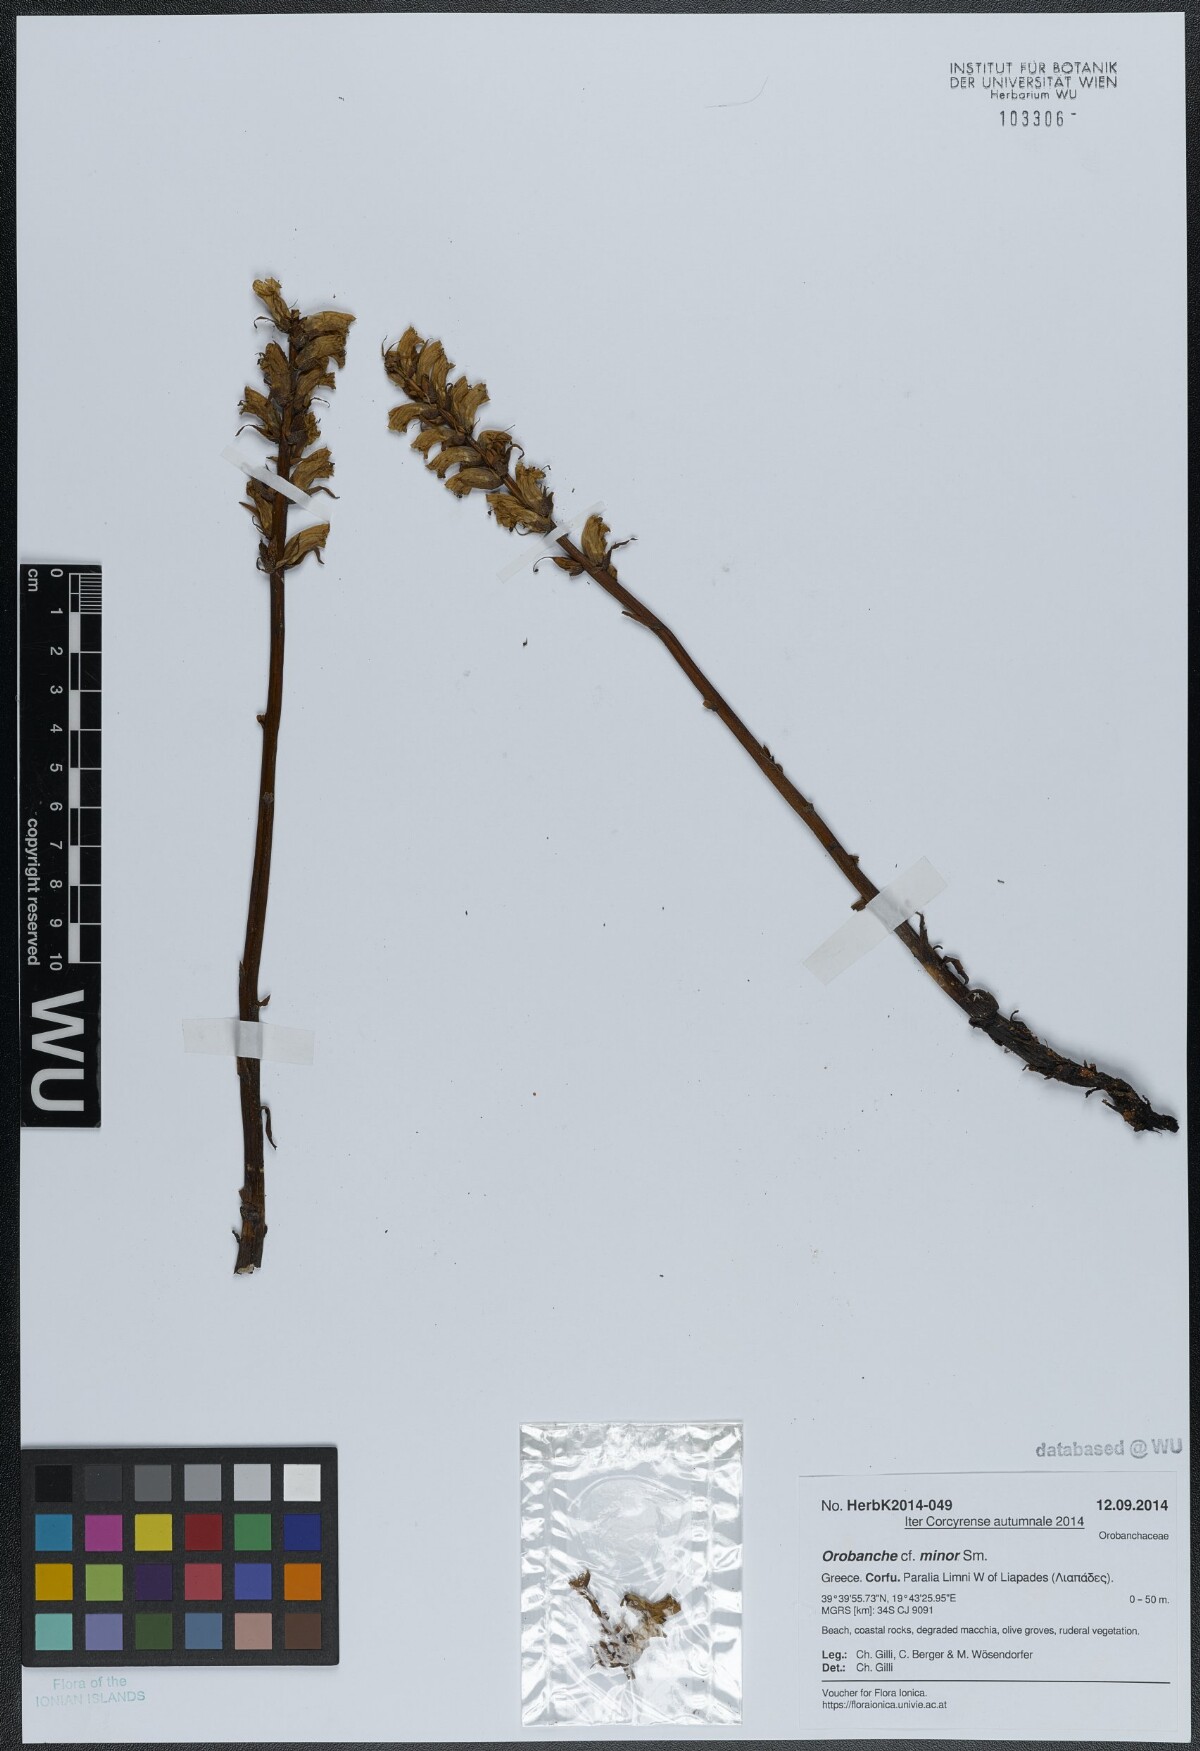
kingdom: Plantae
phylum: Tracheophyta
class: Magnoliopsida
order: Lamiales
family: Orobanchaceae
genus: Orobanche
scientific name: Orobanche grisebachii
